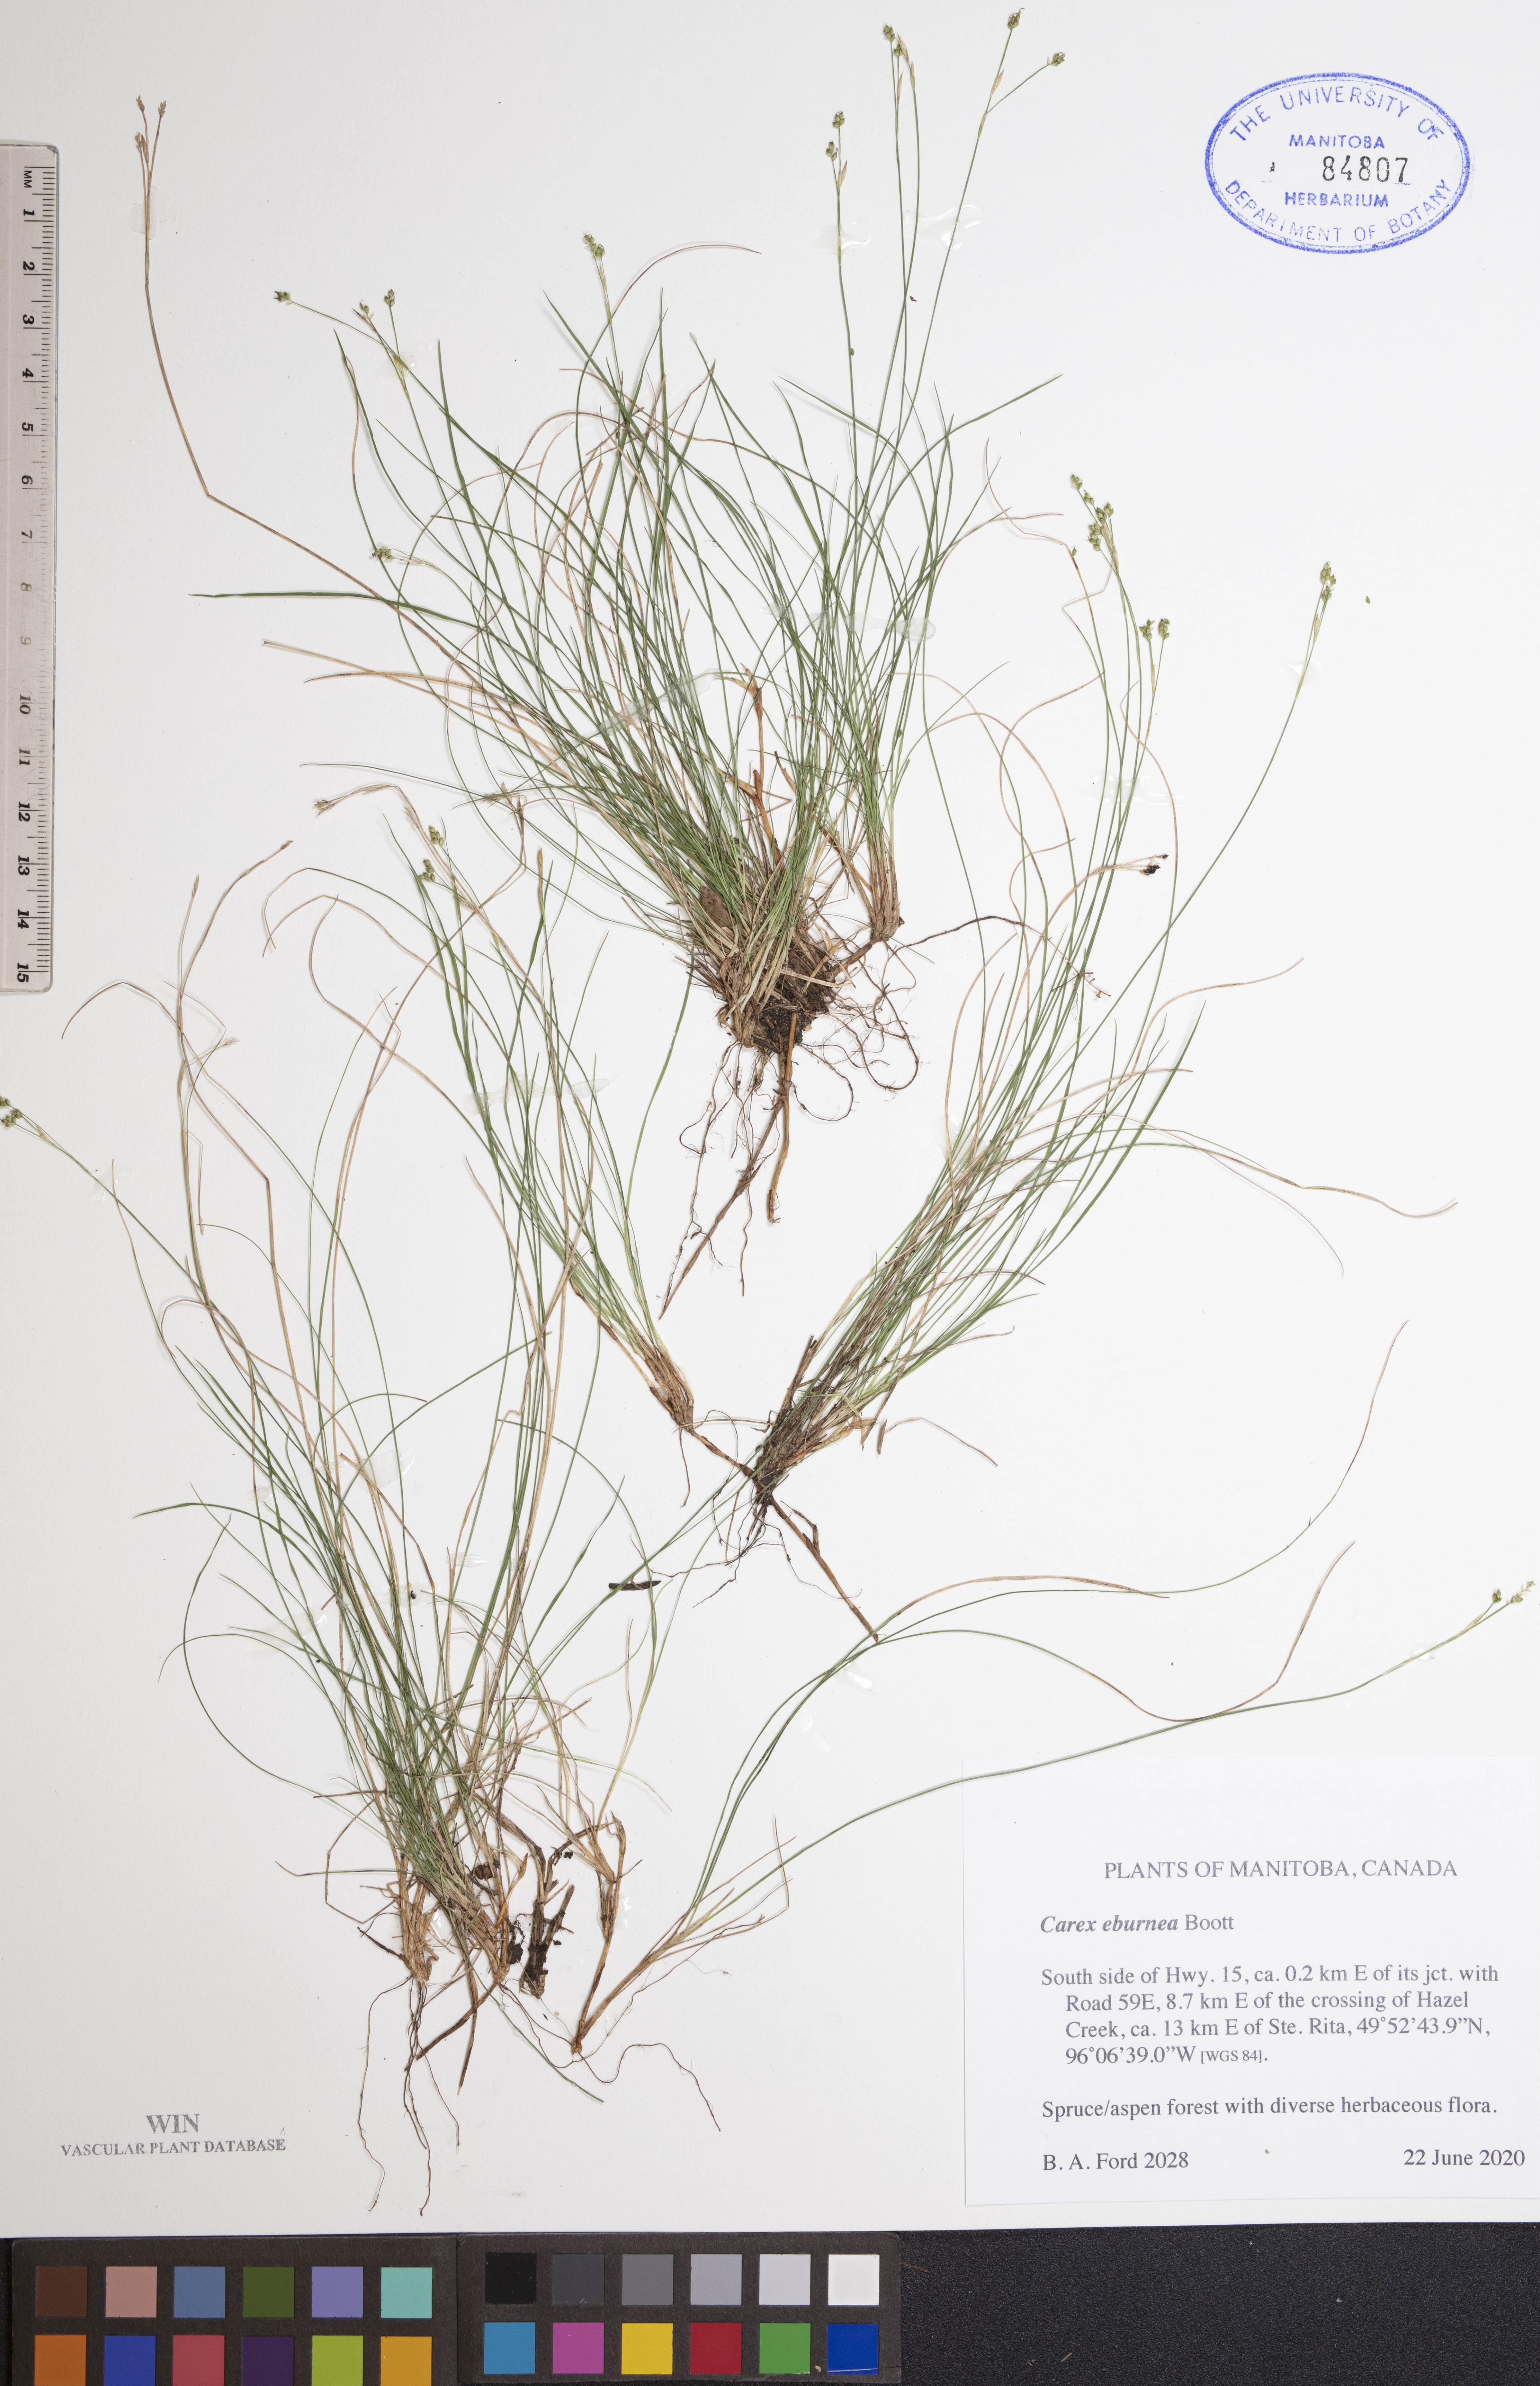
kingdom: Plantae
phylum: Tracheophyta
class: Liliopsida
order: Poales
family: Cyperaceae
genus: Carex
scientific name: Carex eburnea
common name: Bristle-leaved sedge
